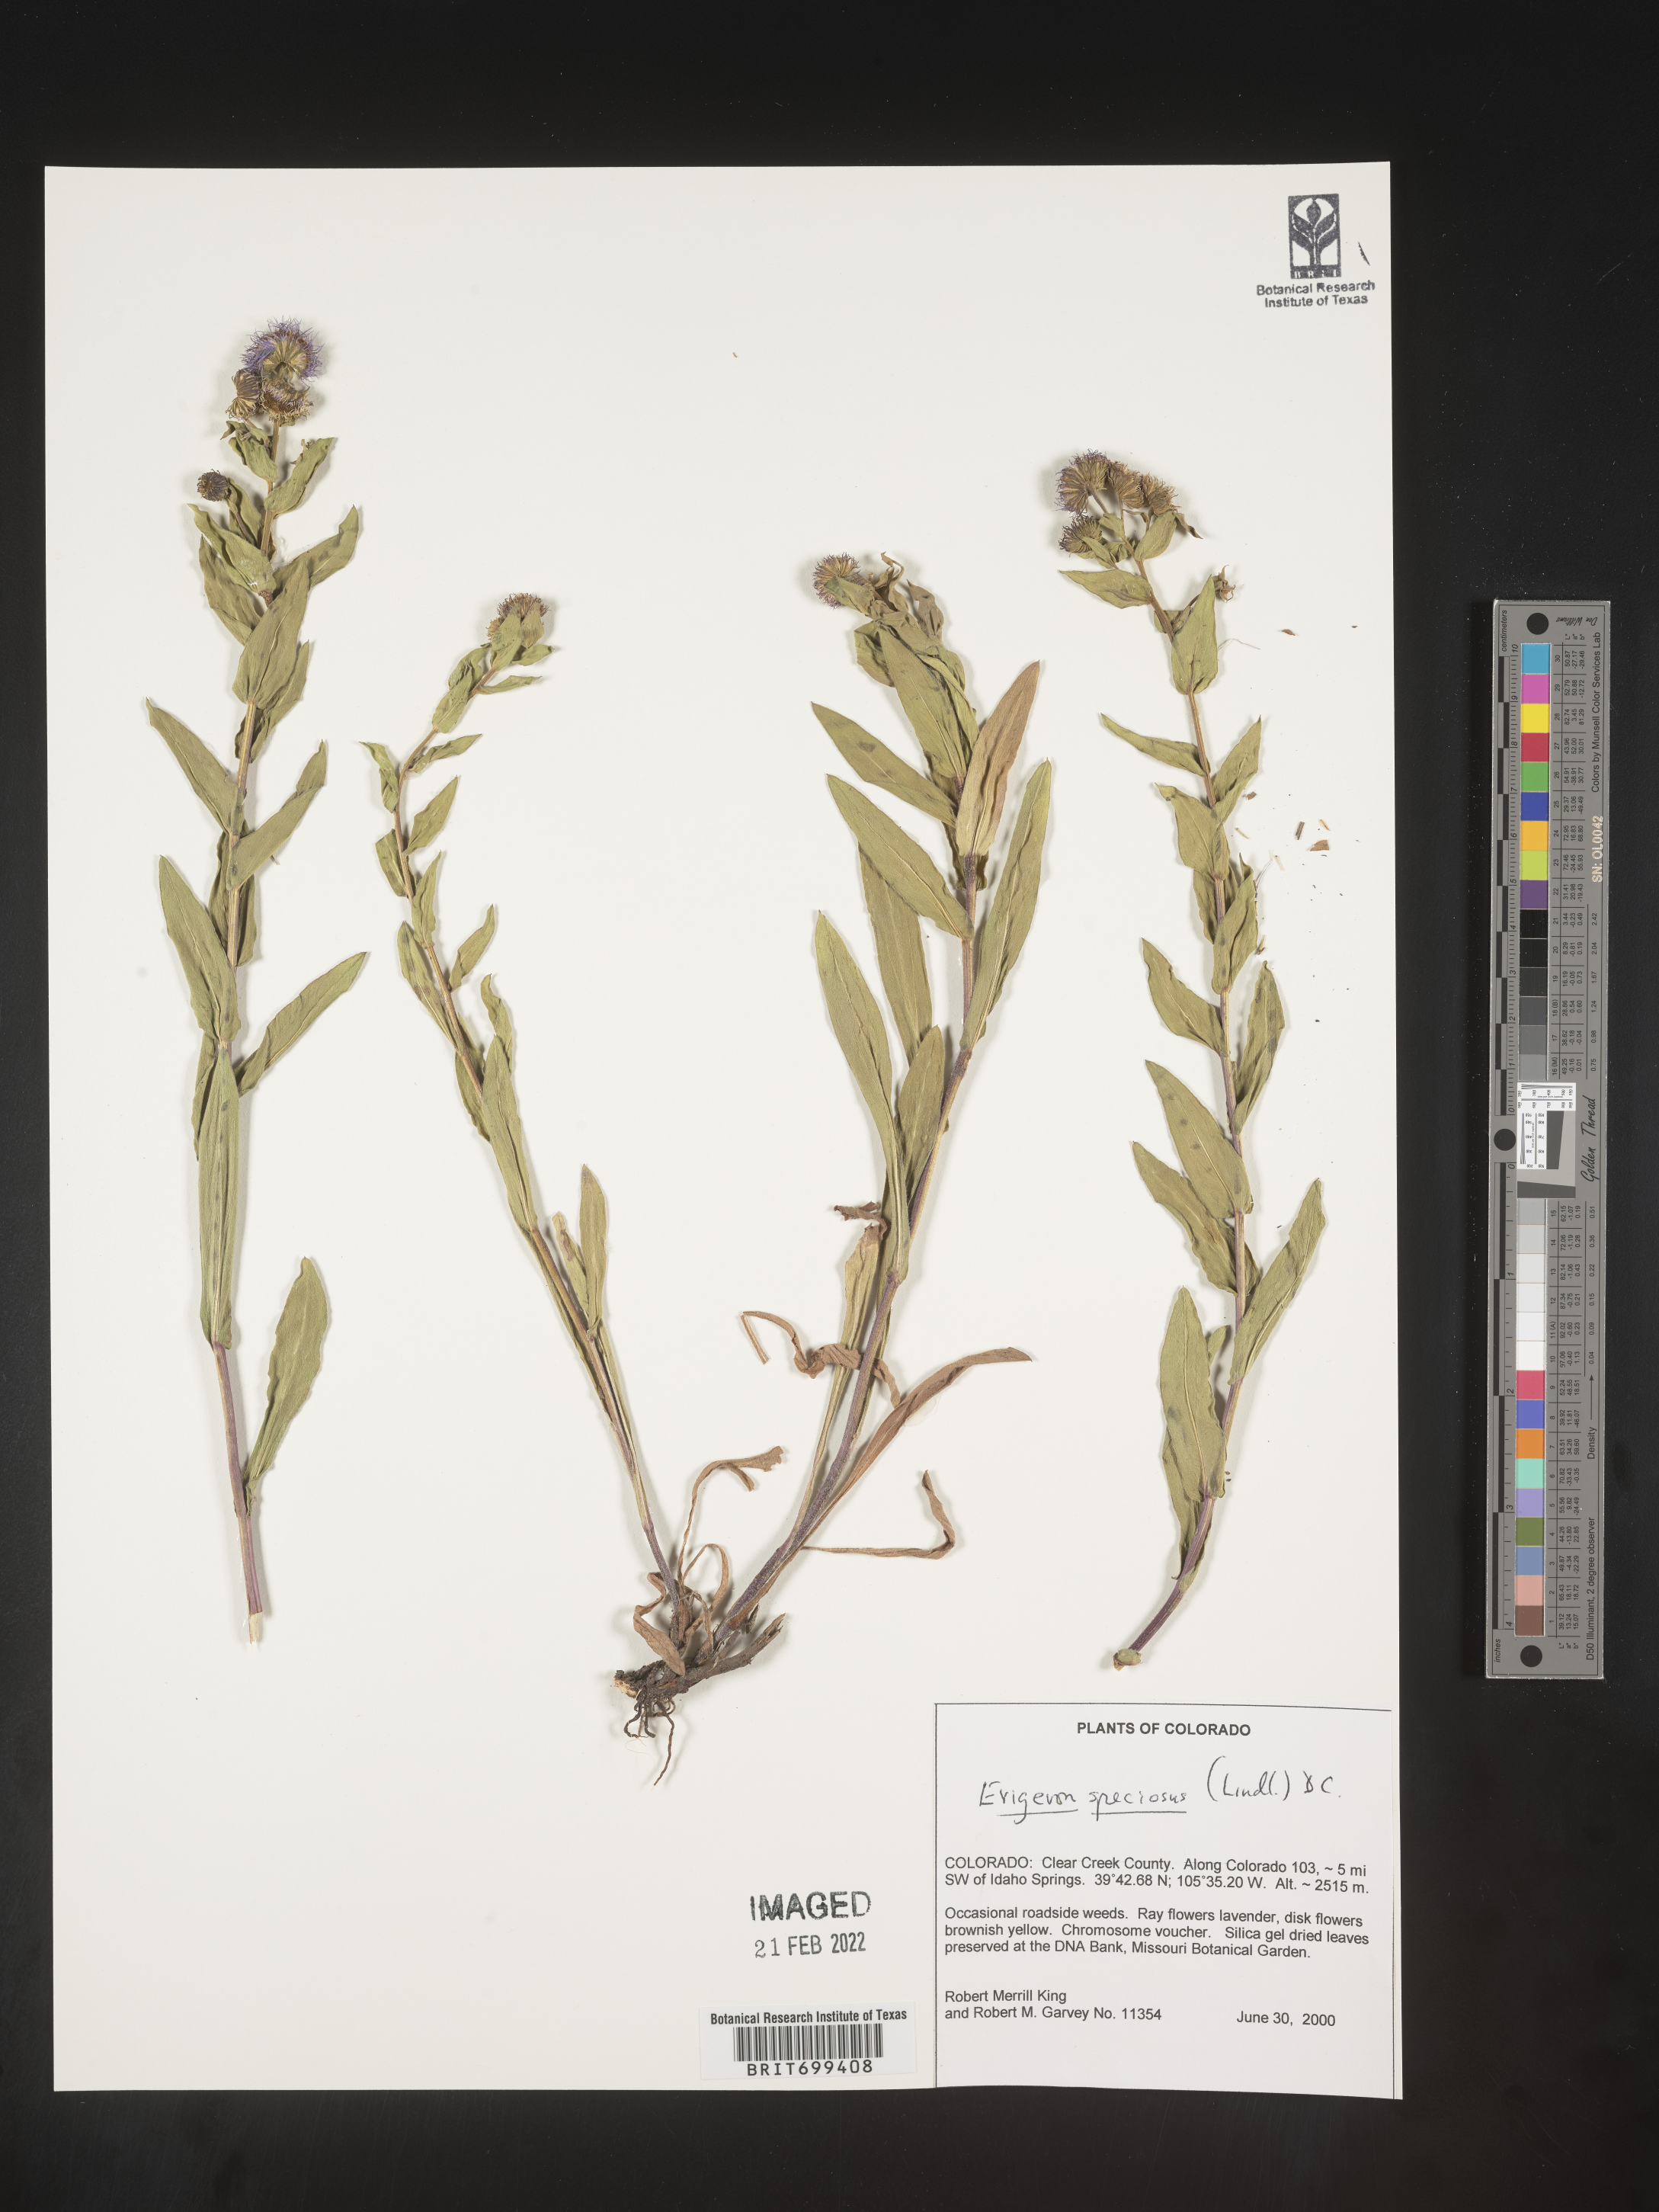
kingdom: Plantae
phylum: Tracheophyta
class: Magnoliopsida
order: Asterales
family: Asteraceae
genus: Erigeron
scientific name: Erigeron speciosus
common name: Aspen fleabane
